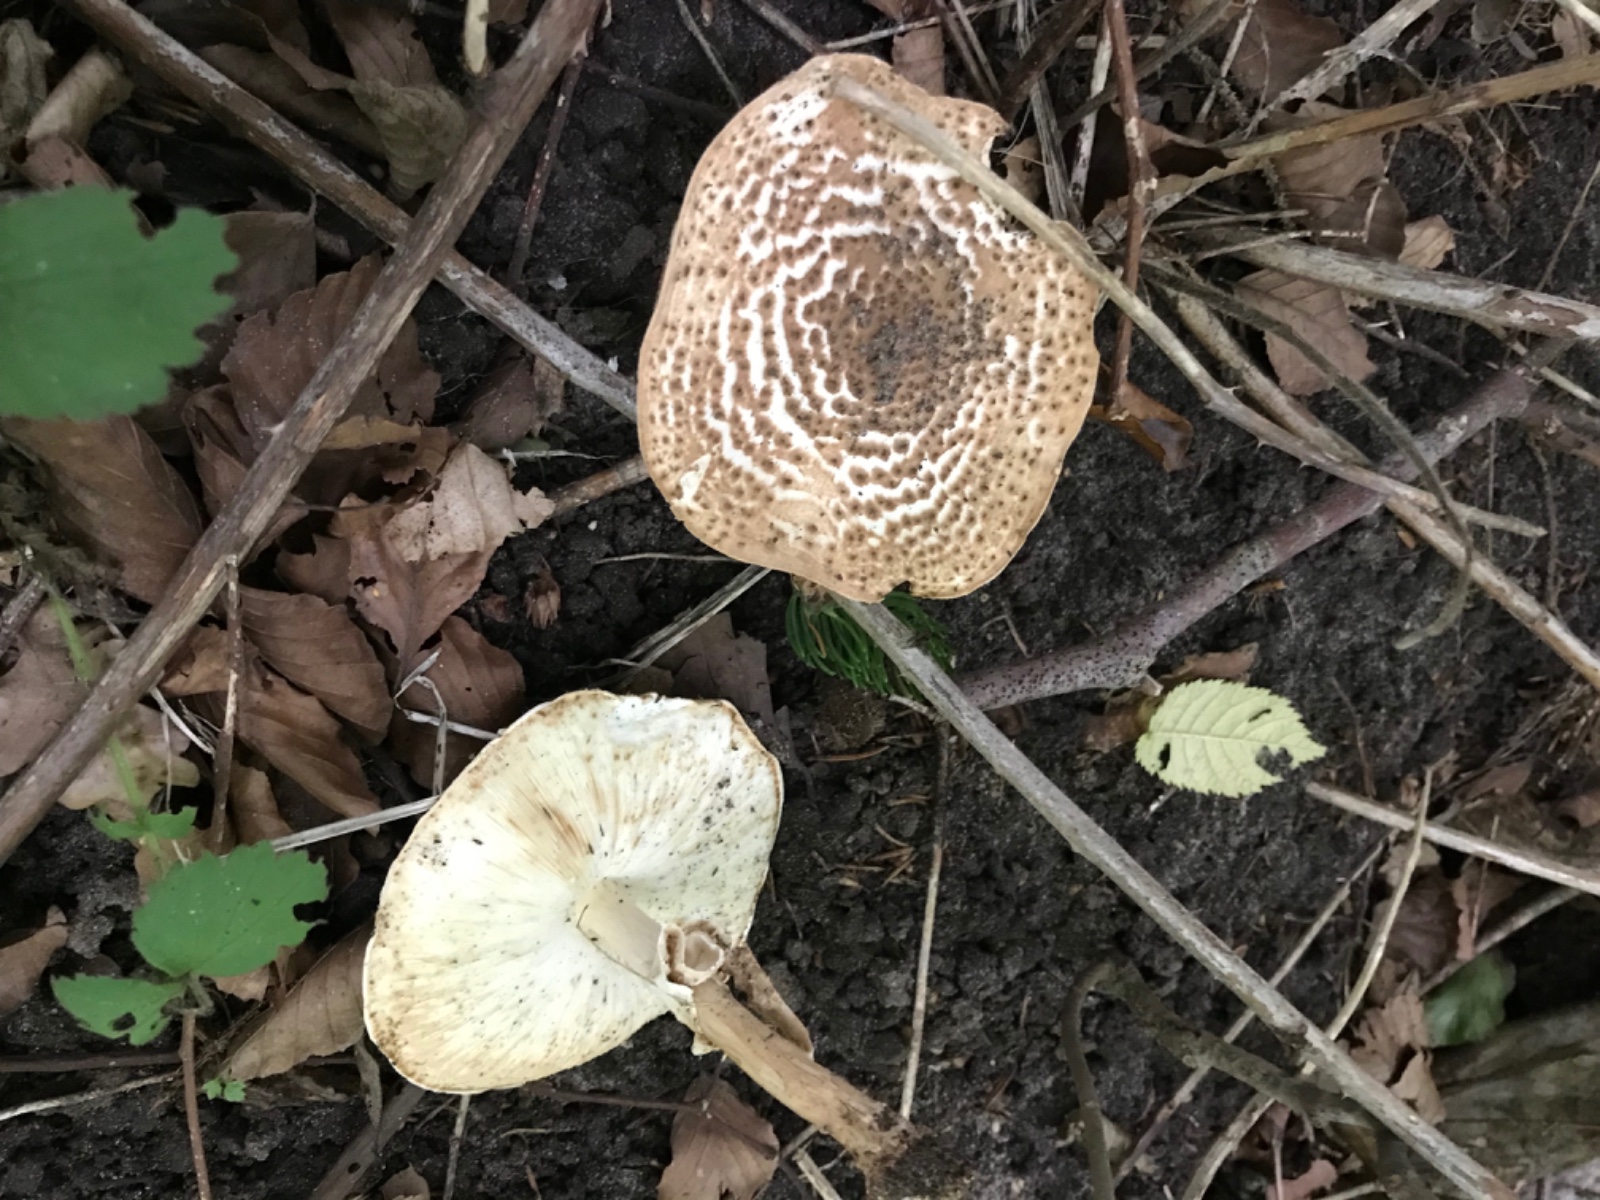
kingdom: Fungi
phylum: Basidiomycota
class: Agaricomycetes
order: Agaricales
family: Agaricaceae
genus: Echinoderma
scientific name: Echinoderma asperum
